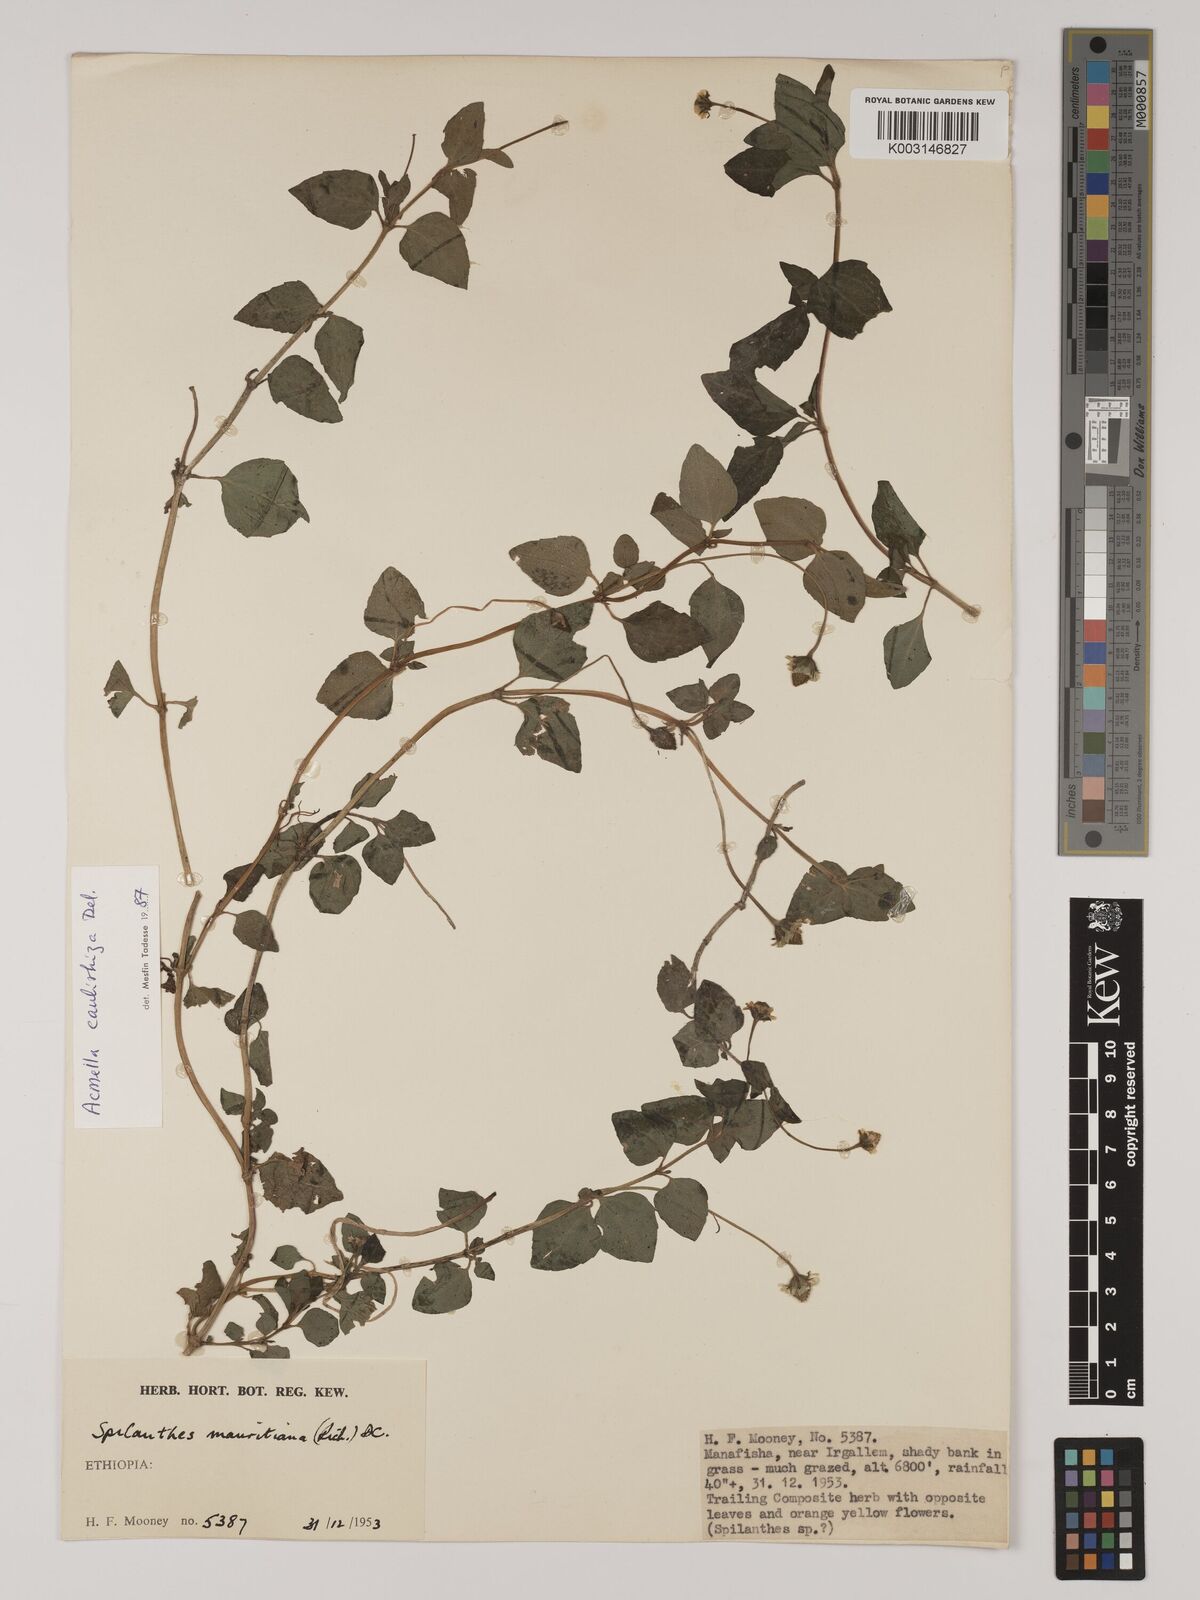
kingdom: Plantae
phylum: Tracheophyta
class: Magnoliopsida
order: Asterales
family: Asteraceae
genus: Acmella
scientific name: Acmella caulirhiza
